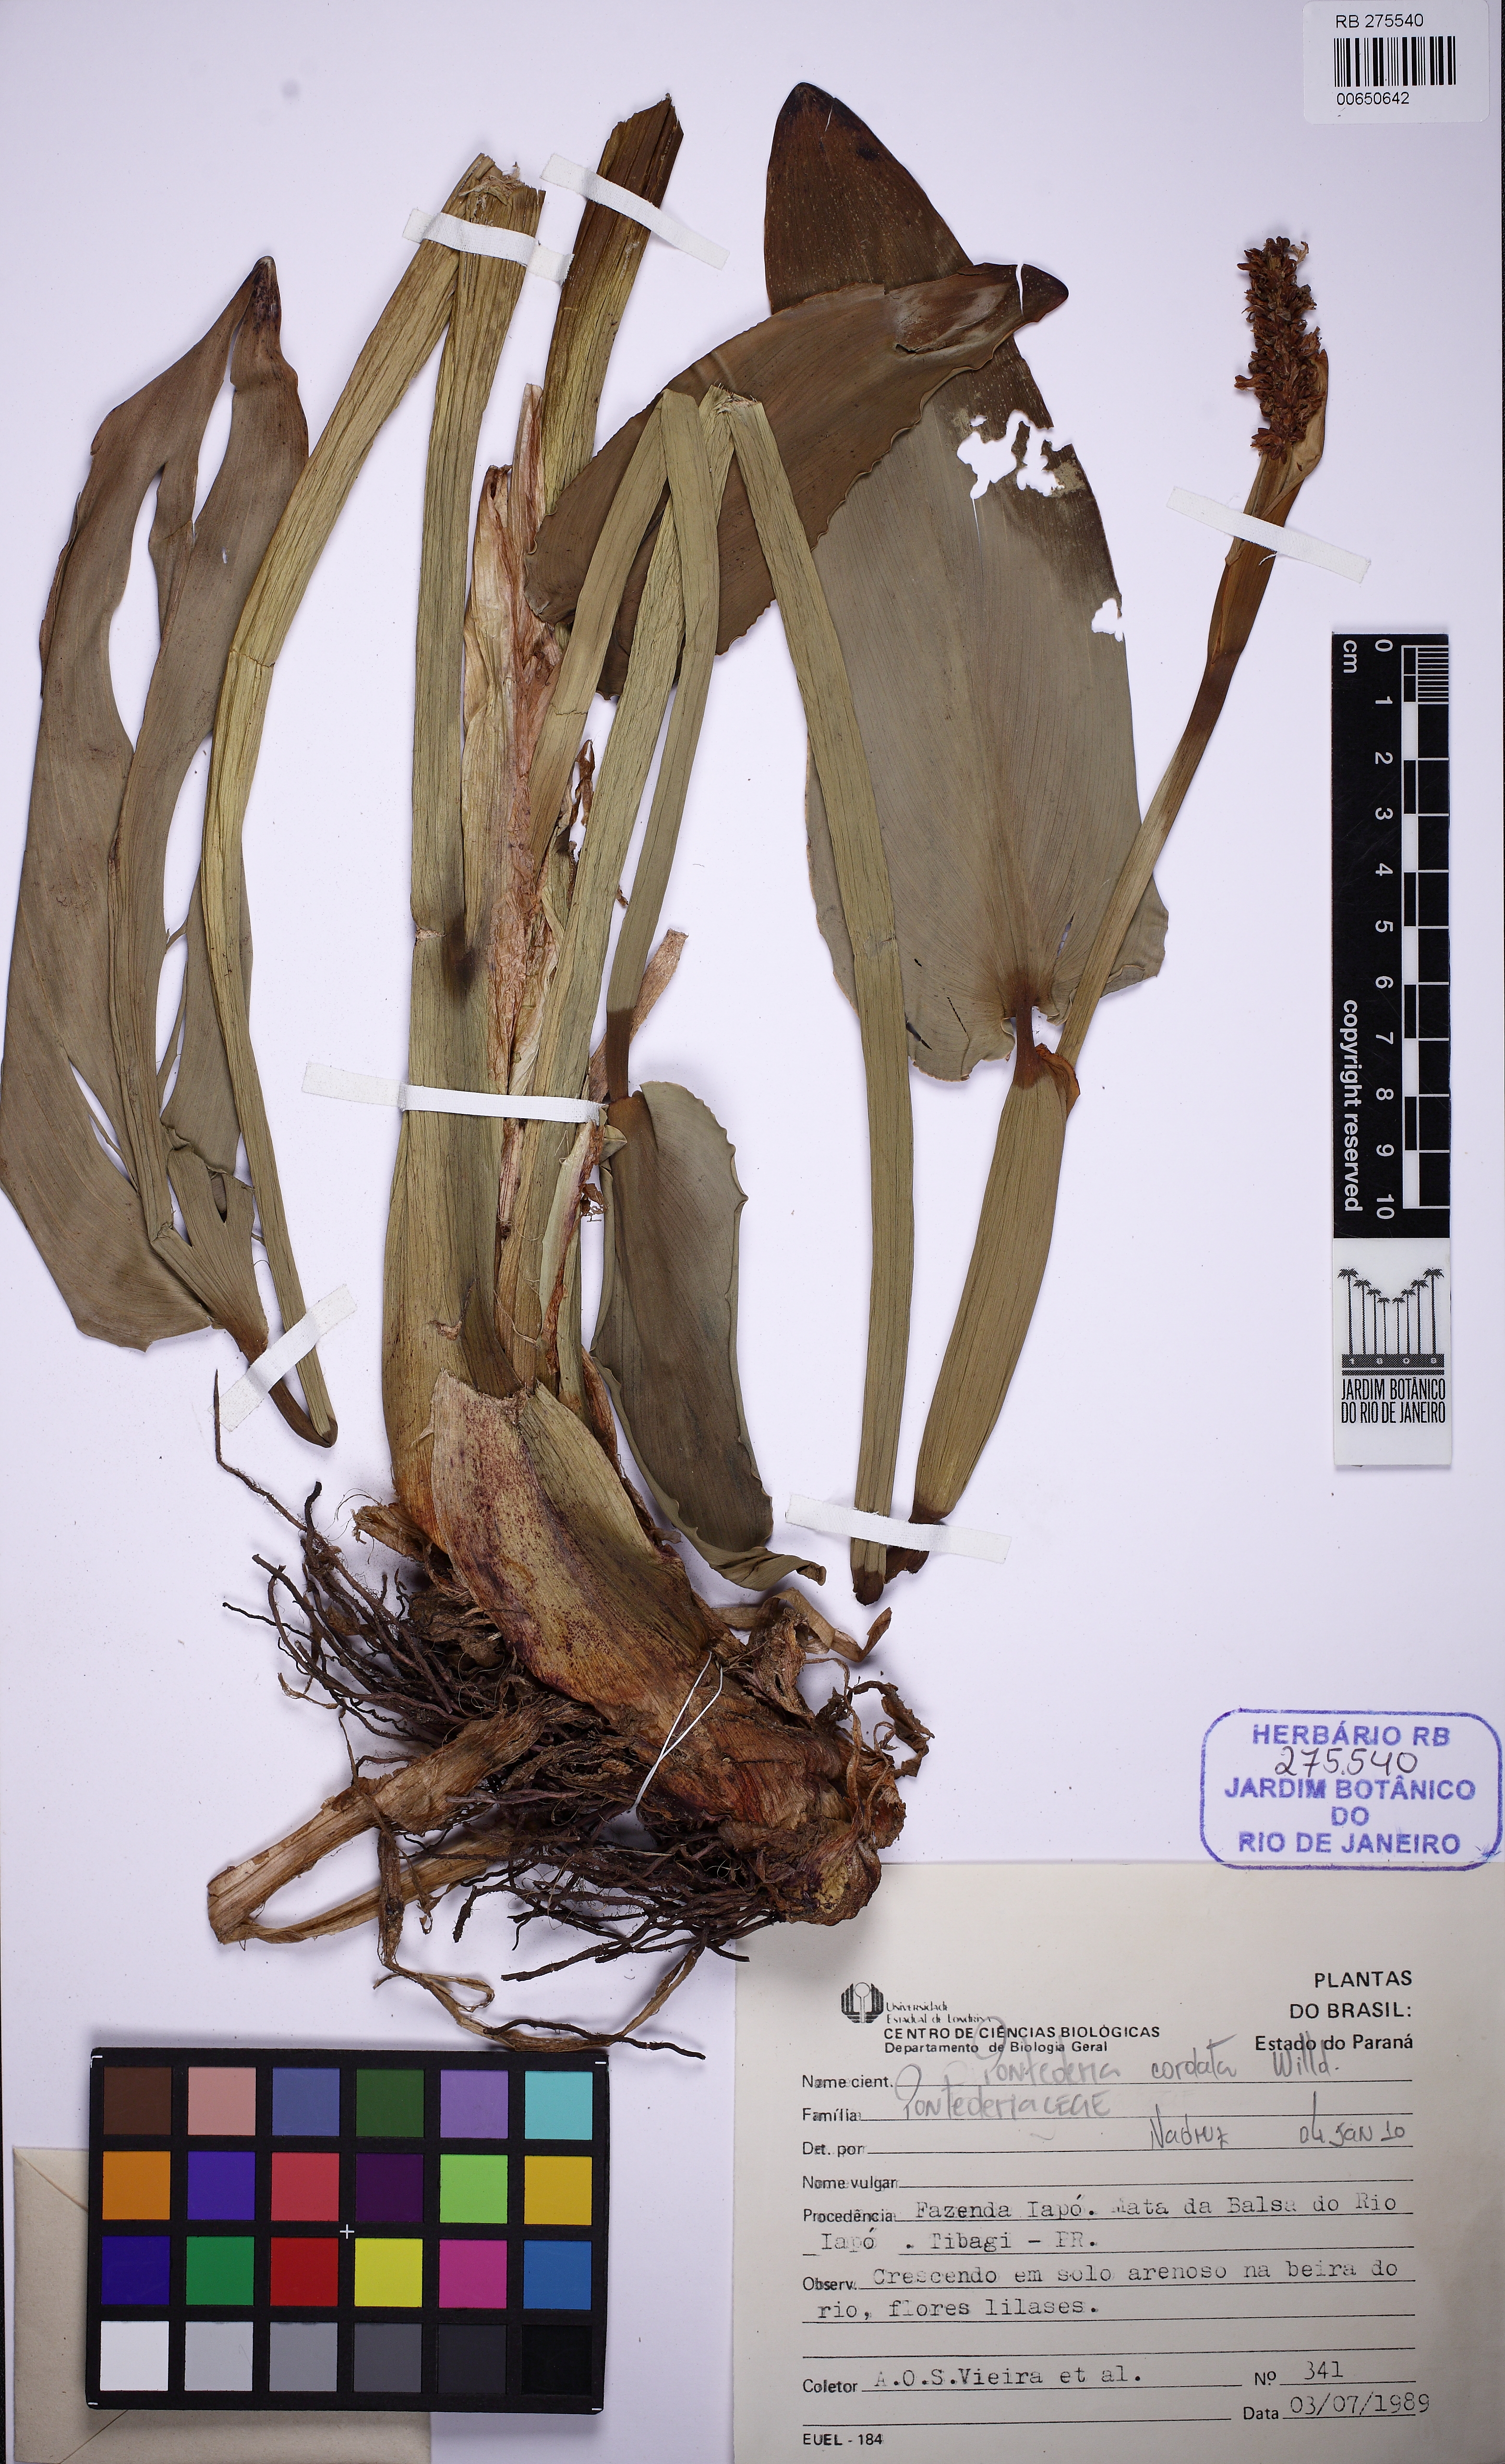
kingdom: Plantae
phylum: Tracheophyta
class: Liliopsida
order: Commelinales
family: Pontederiaceae
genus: Pontederia
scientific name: Pontederia cordata
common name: Pickerelweed
